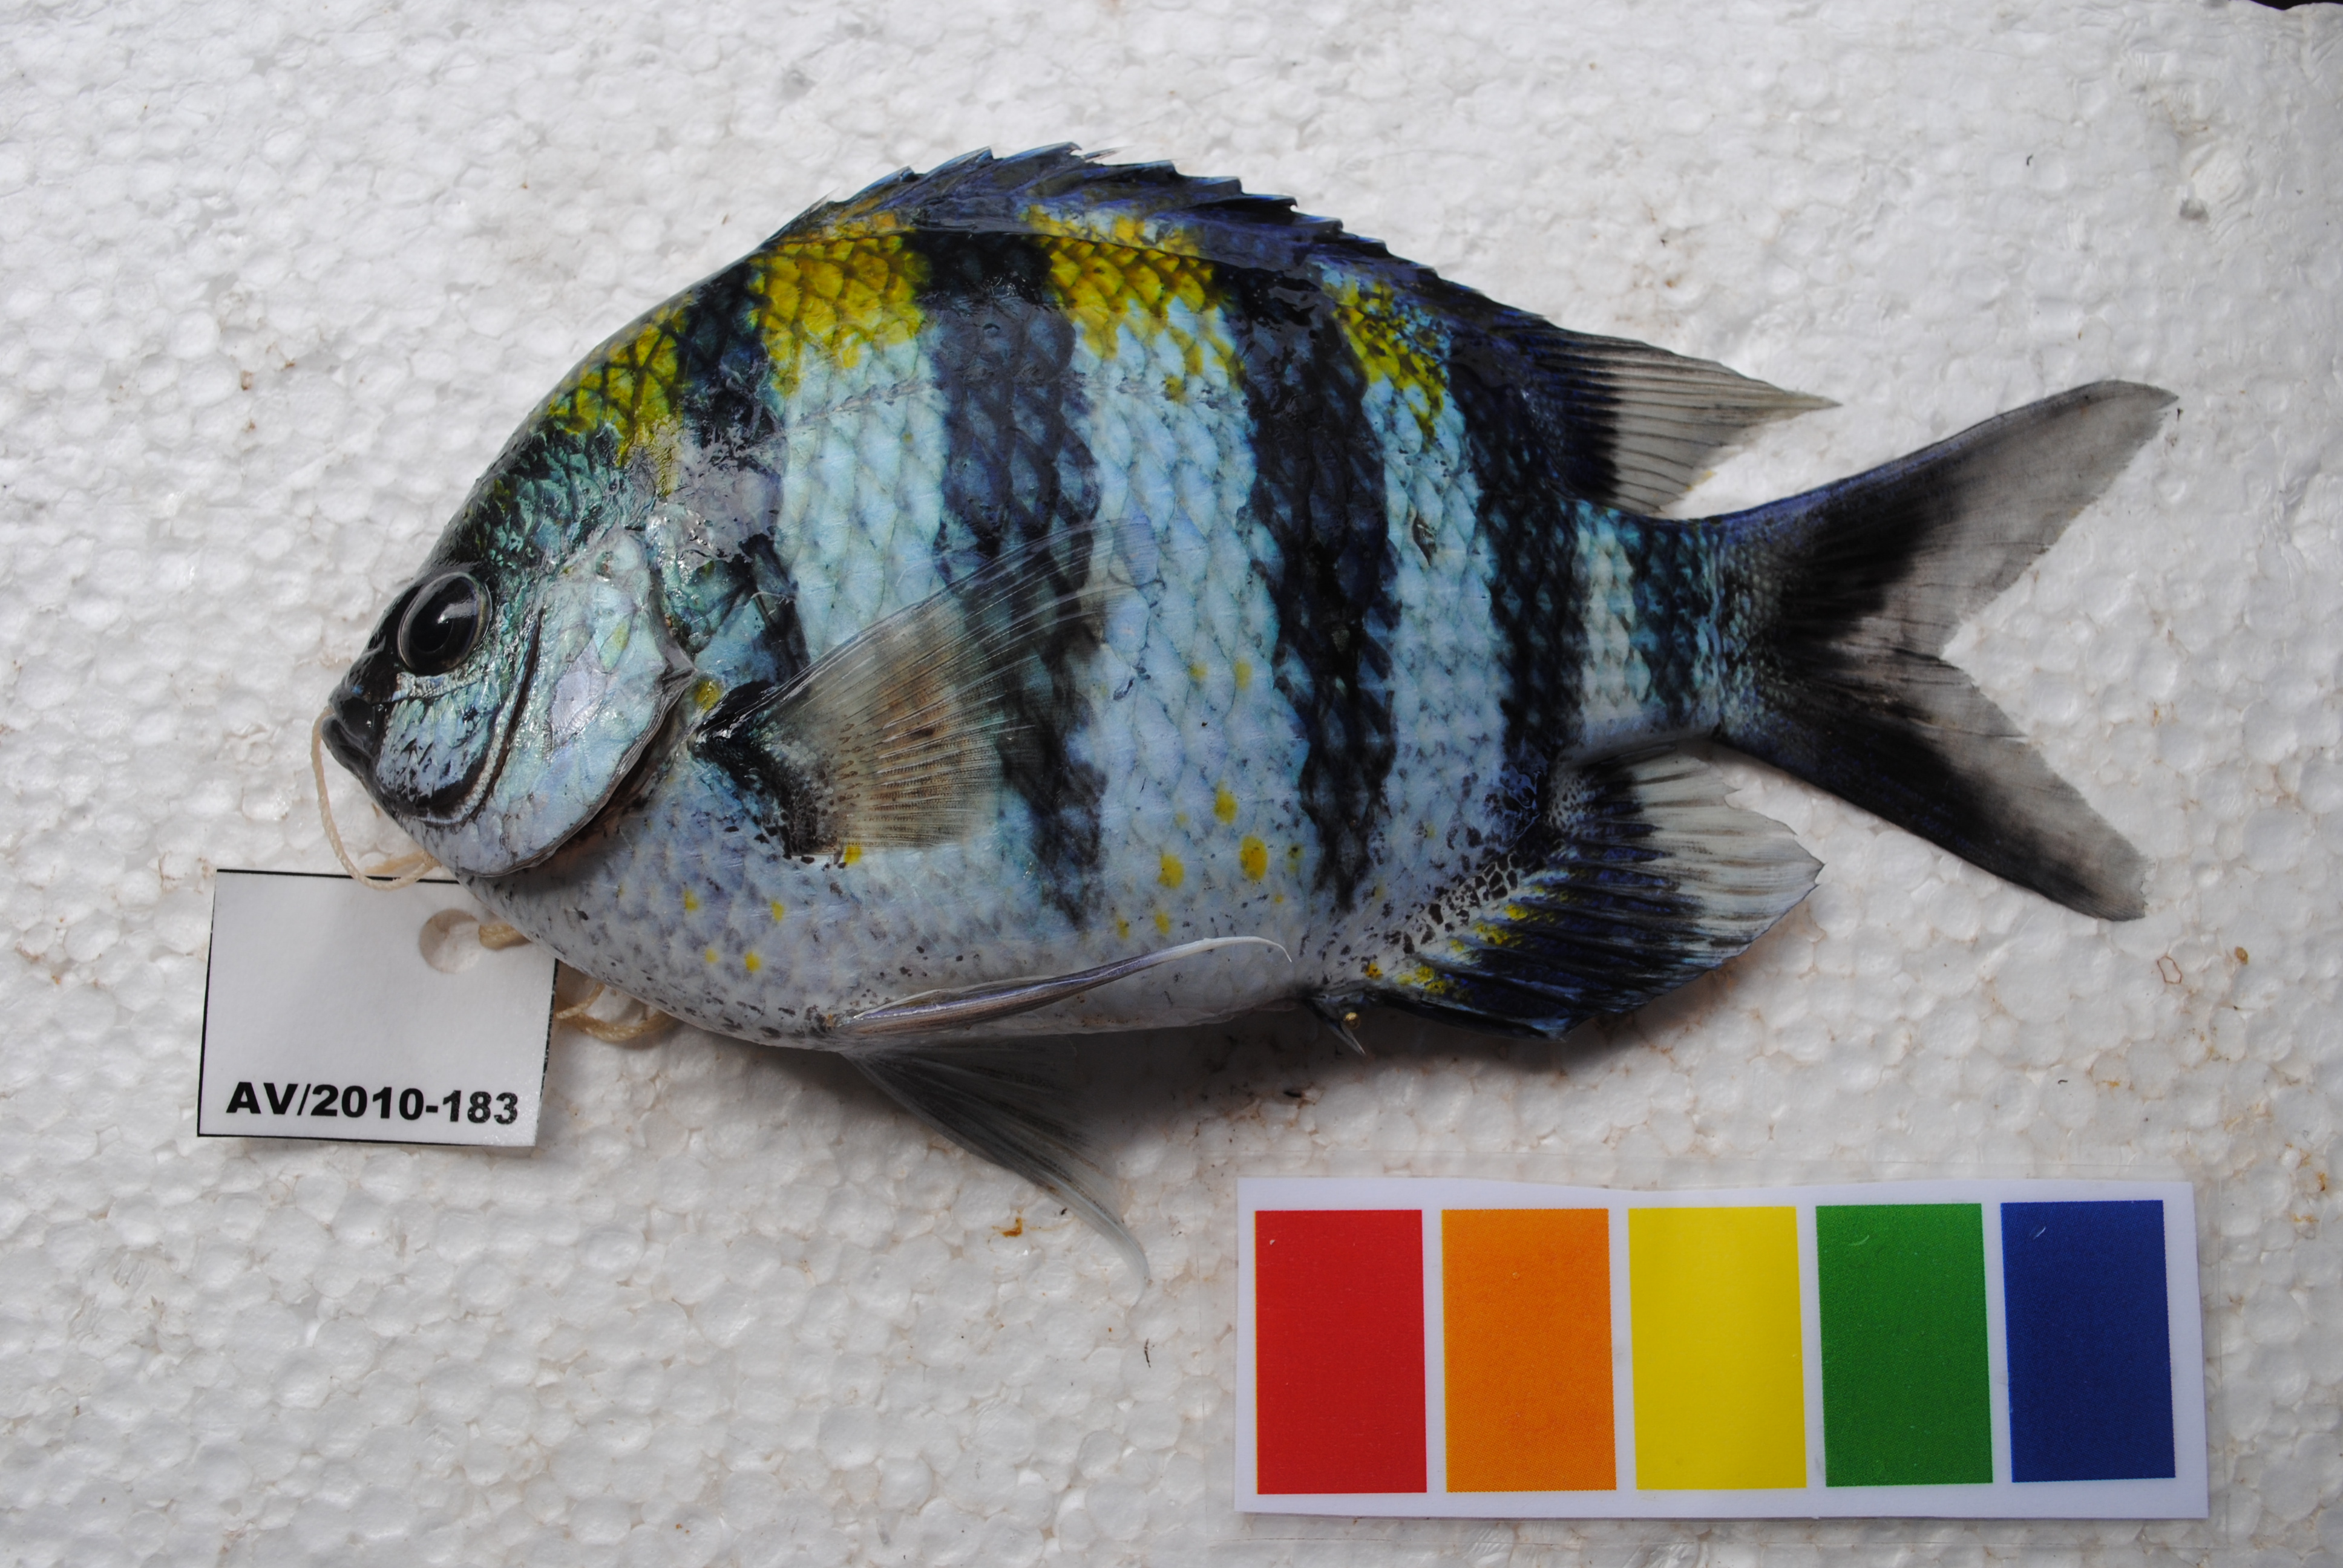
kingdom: Animalia
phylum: Chordata
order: Perciformes
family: Pomacentridae
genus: Abudefduf
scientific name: Abudefduf vaigiensis
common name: Indo-pacific sergeant
